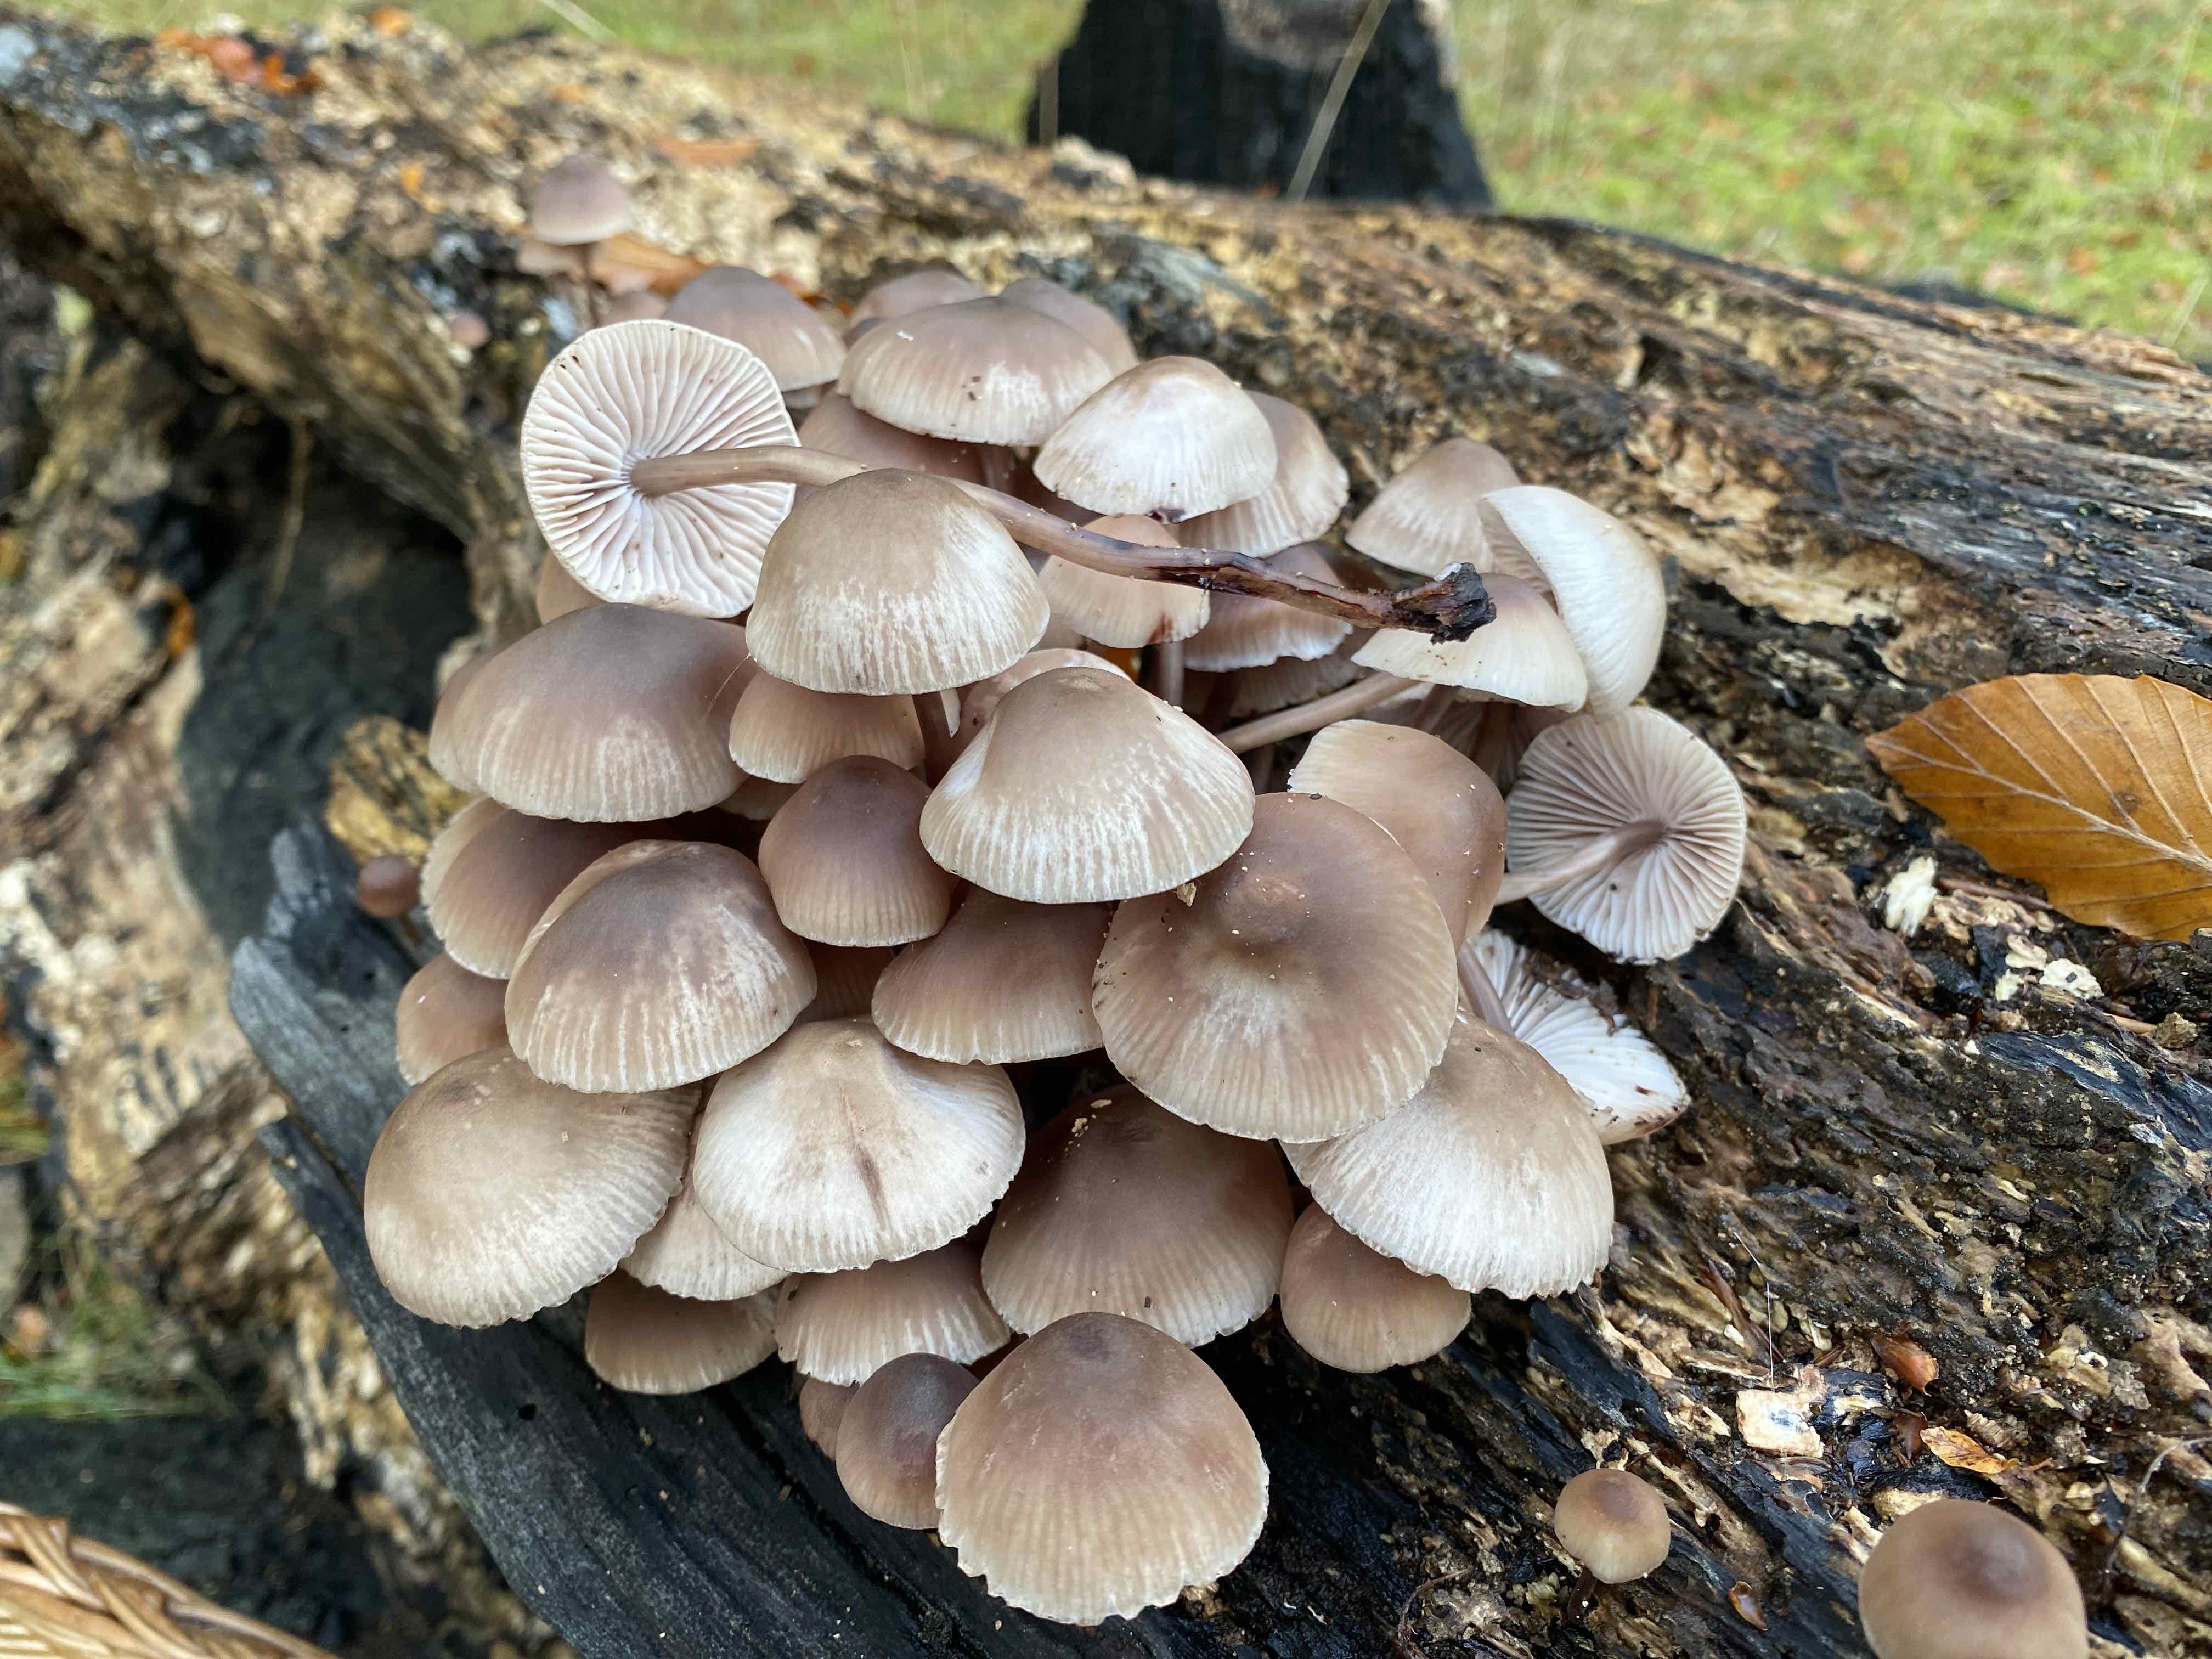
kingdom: Fungi
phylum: Basidiomycota
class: Agaricomycetes
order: Agaricales
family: Mycenaceae
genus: Mycena
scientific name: Mycena haematopus
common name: blødende huesvamp
